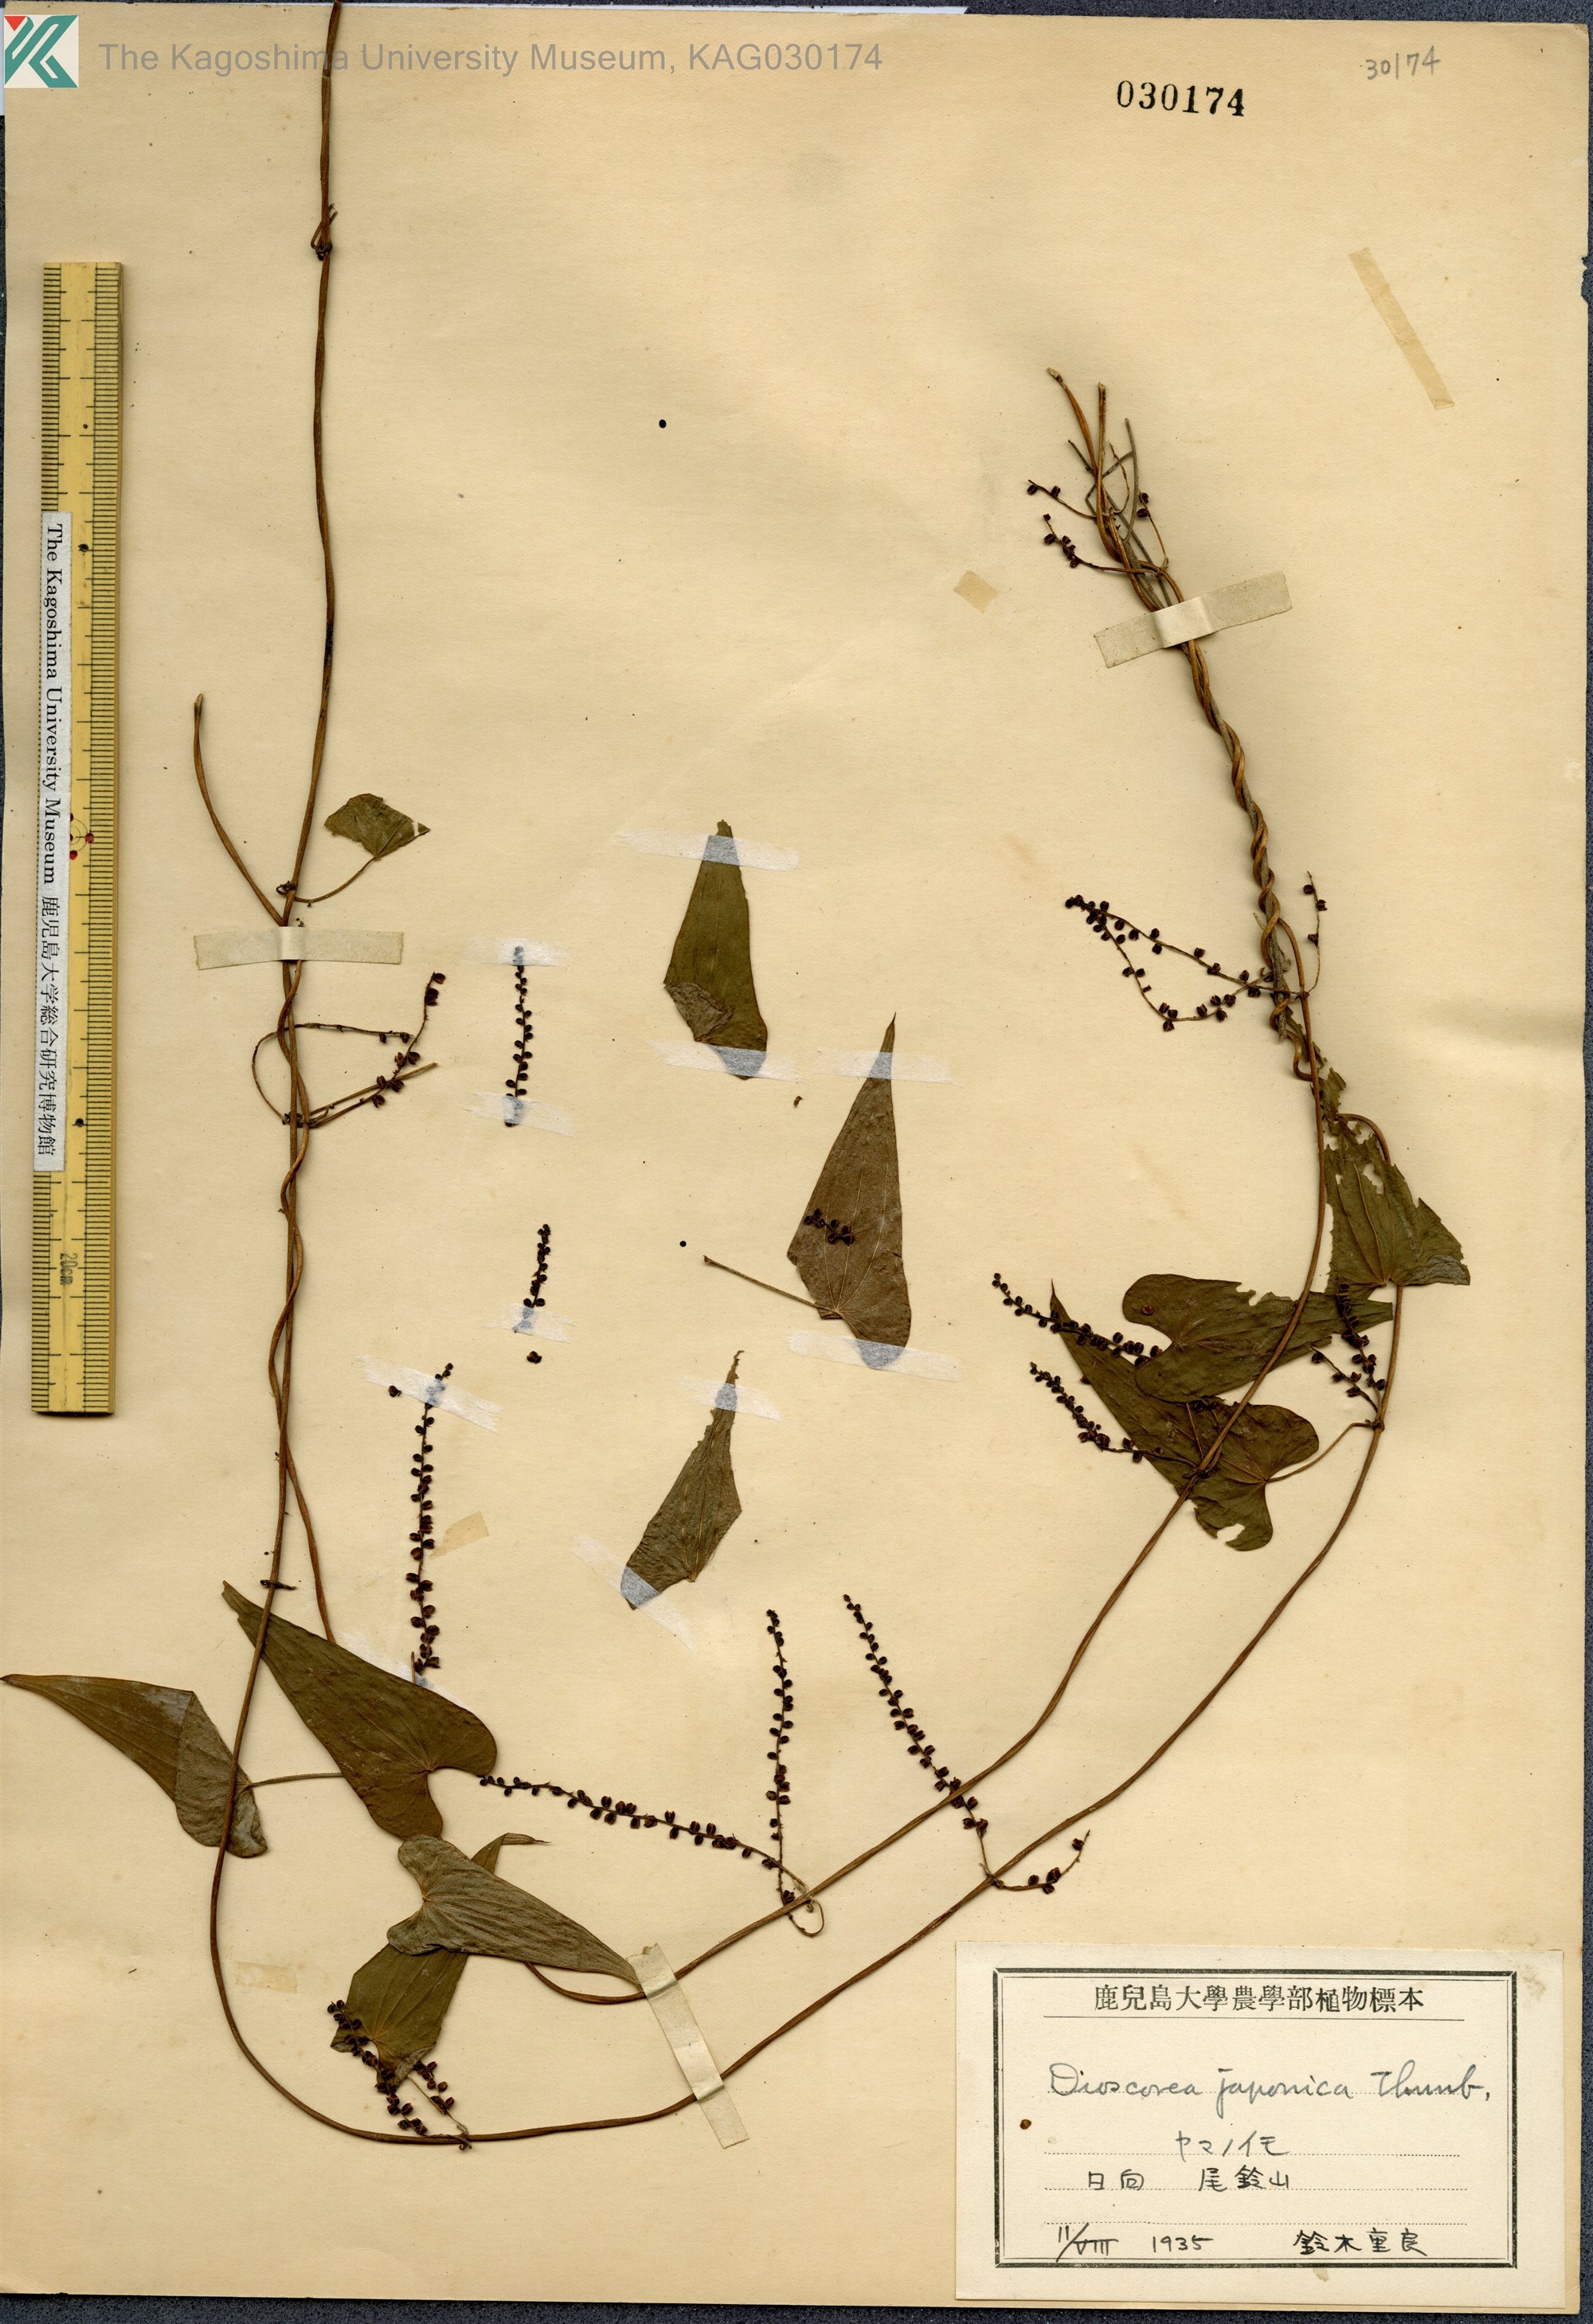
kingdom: Plantae
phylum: Tracheophyta
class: Liliopsida
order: Dioscoreales
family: Dioscoreaceae
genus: Dioscorea
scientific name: Dioscorea japonica
